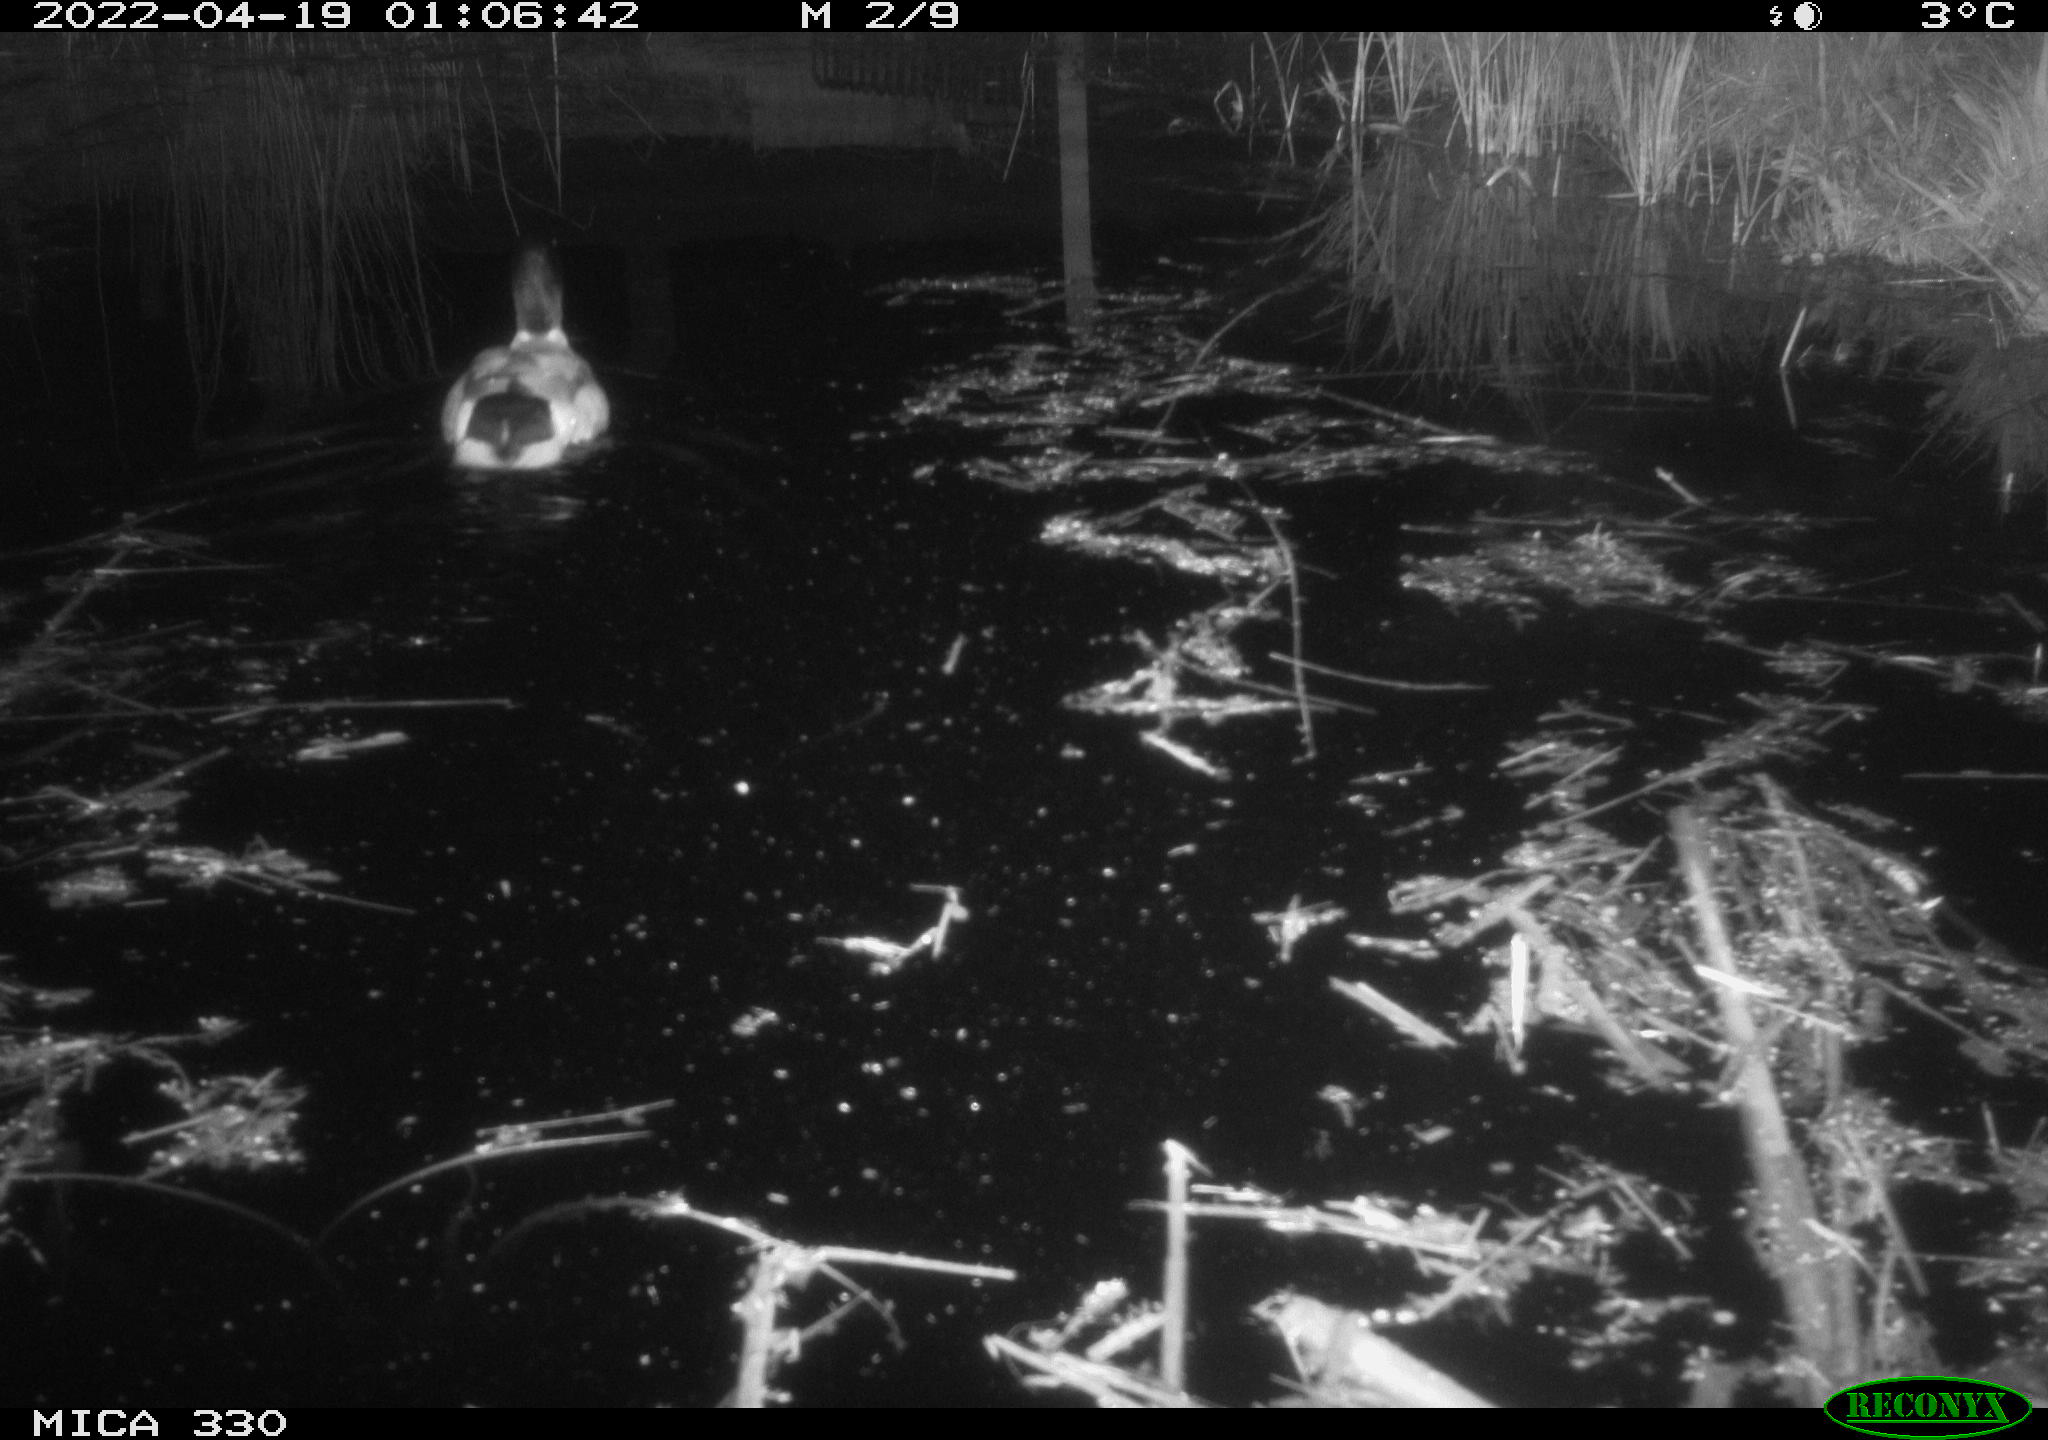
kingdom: Animalia
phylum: Chordata
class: Aves
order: Anseriformes
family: Anatidae
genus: Anas
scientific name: Anas platyrhynchos
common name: Mallard
